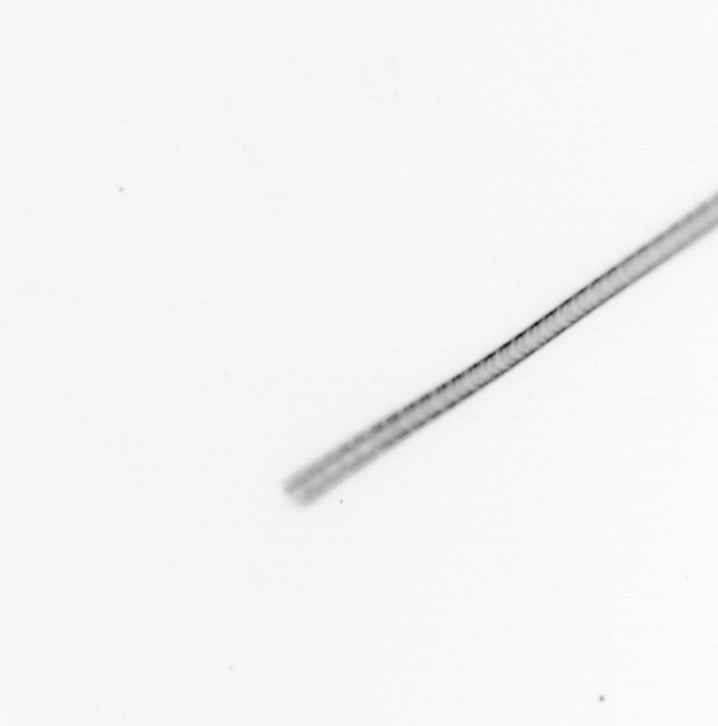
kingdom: Chromista
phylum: Ochrophyta
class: Bacillariophyceae
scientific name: Bacillariophyceae
